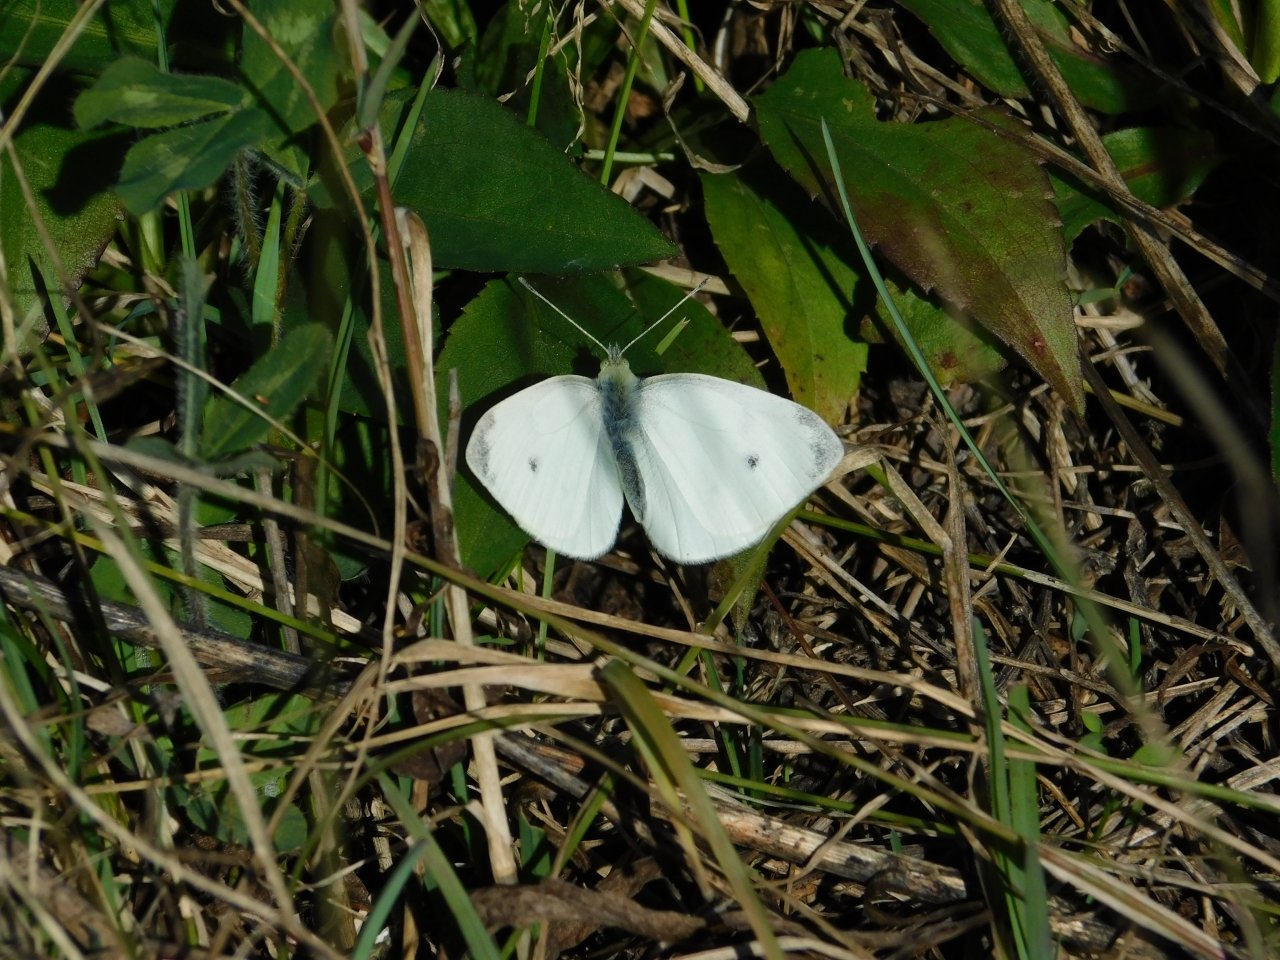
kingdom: Animalia
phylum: Arthropoda
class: Insecta
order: Lepidoptera
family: Pieridae
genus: Pieris
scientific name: Pieris rapae
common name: Cabbage White
